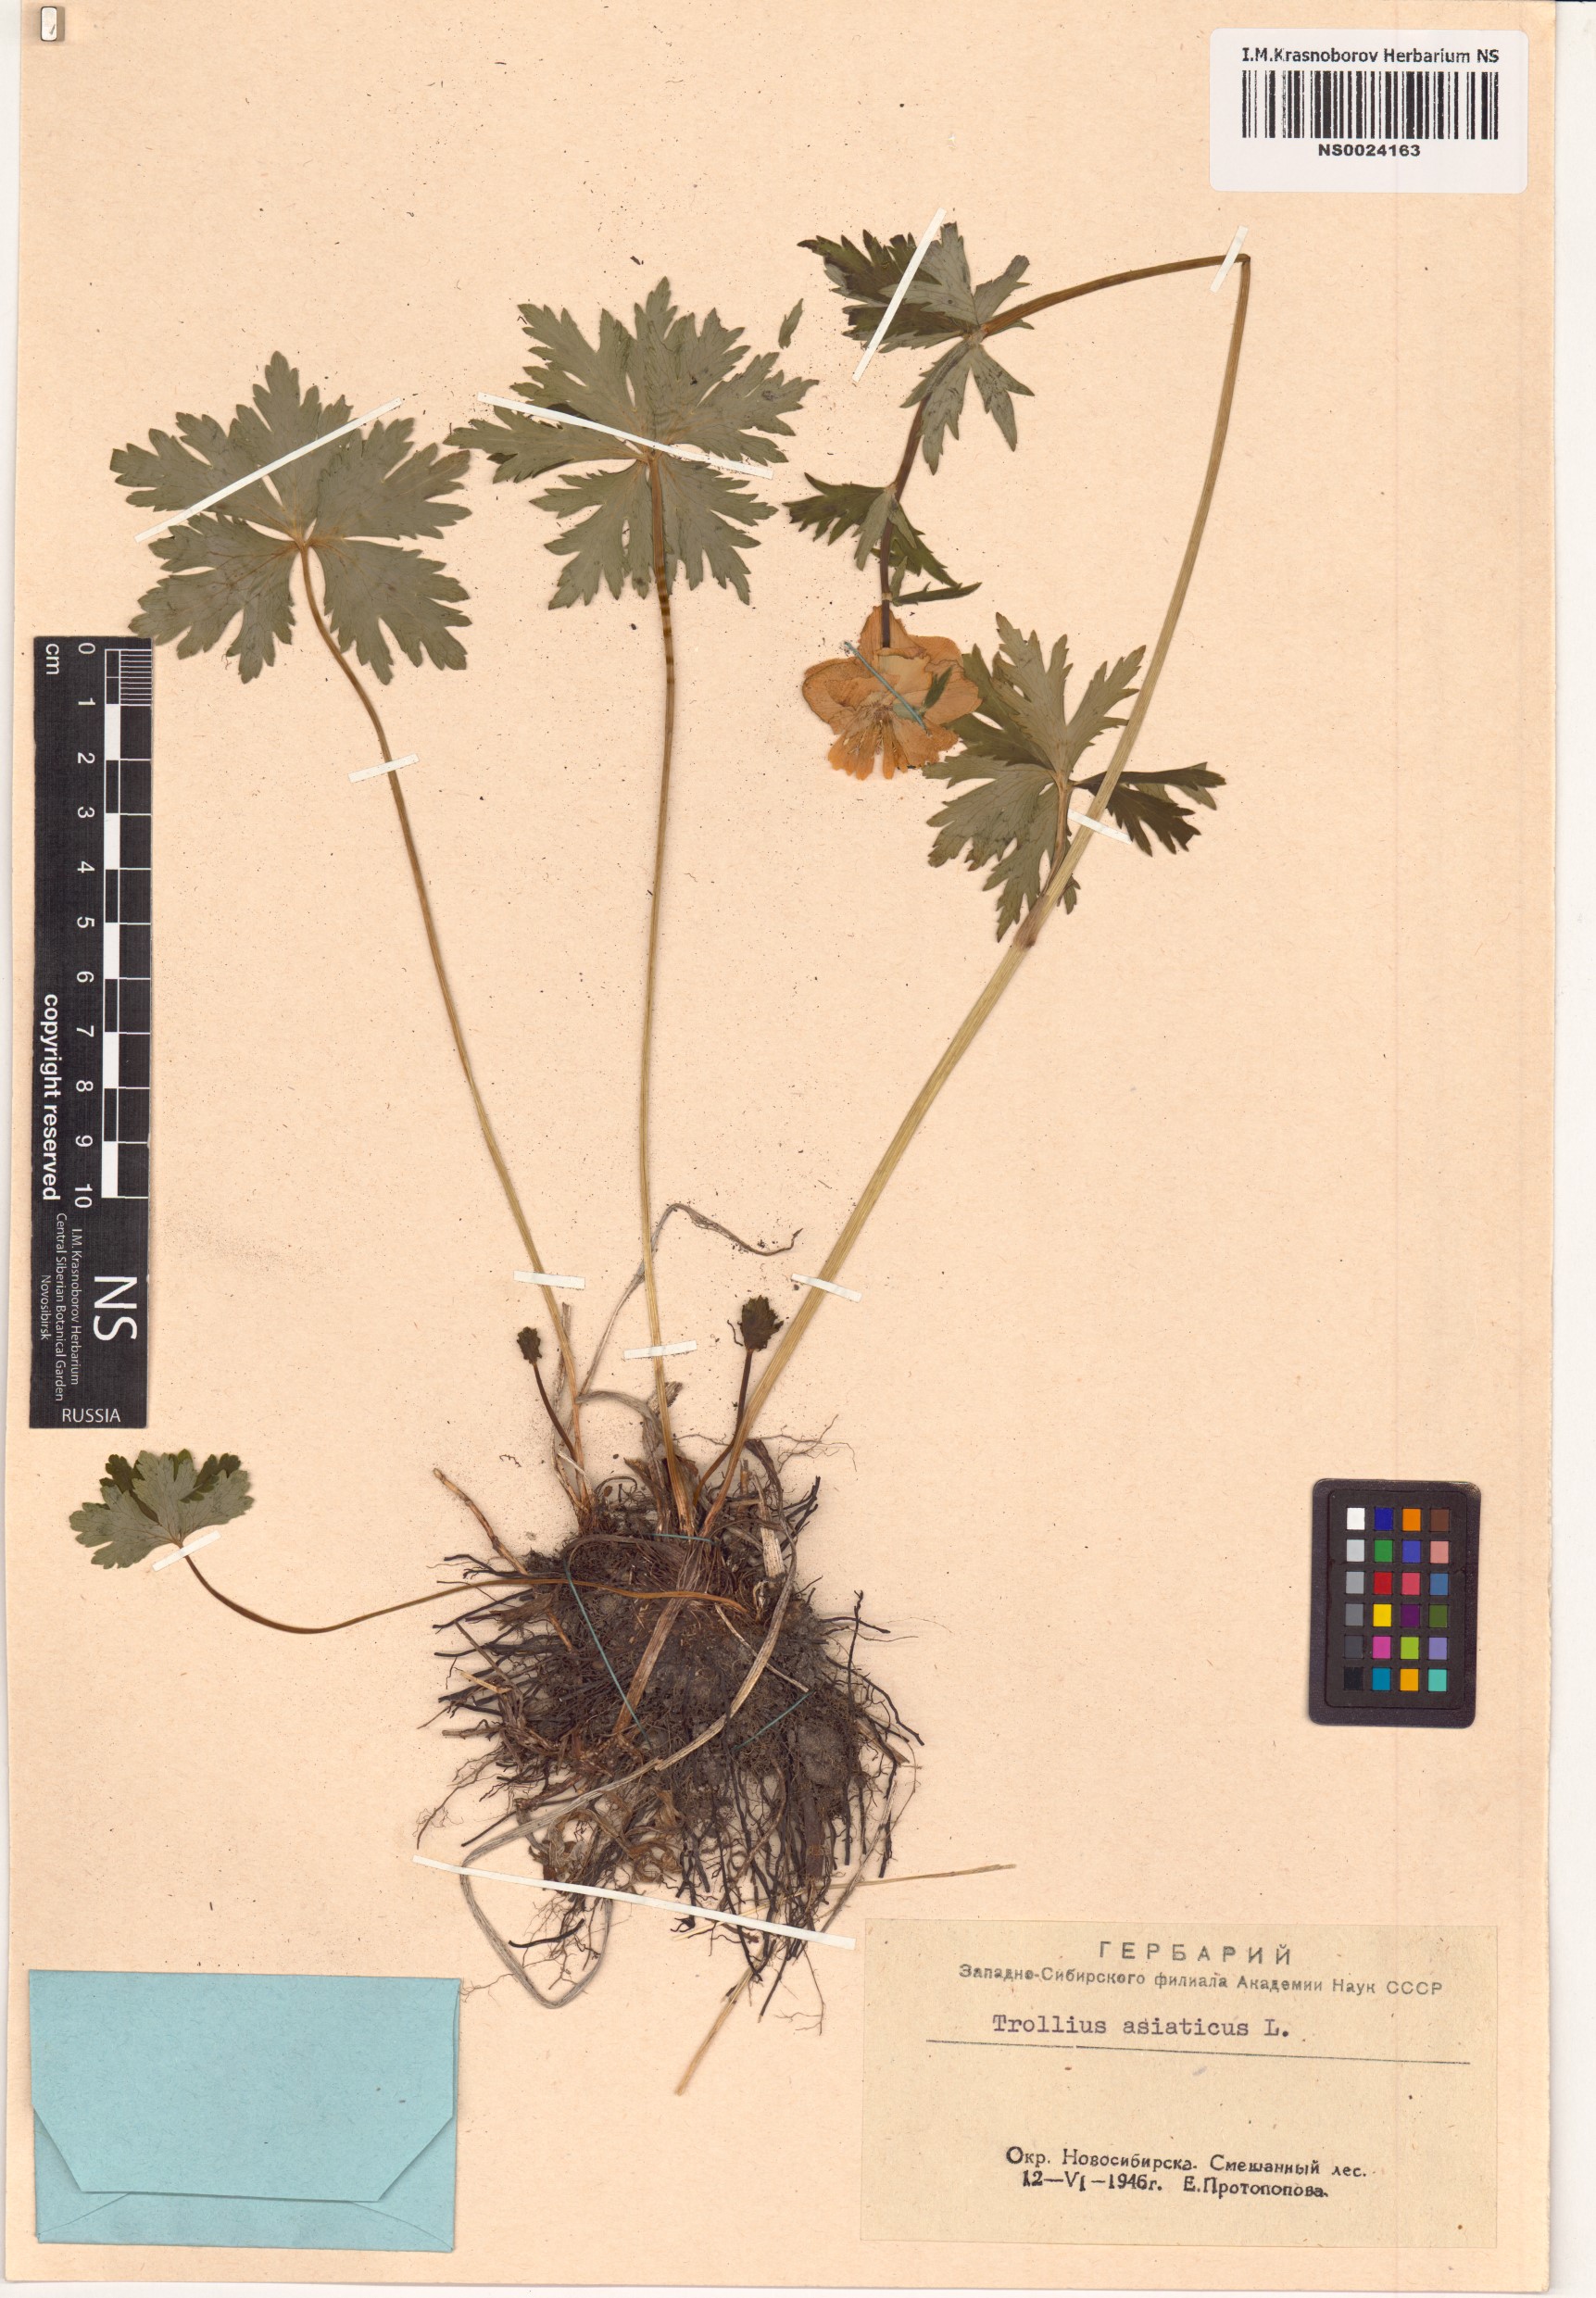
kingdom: Plantae
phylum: Tracheophyta
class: Magnoliopsida
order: Ranunculales
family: Ranunculaceae
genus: Trollius
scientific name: Trollius asiaticus
